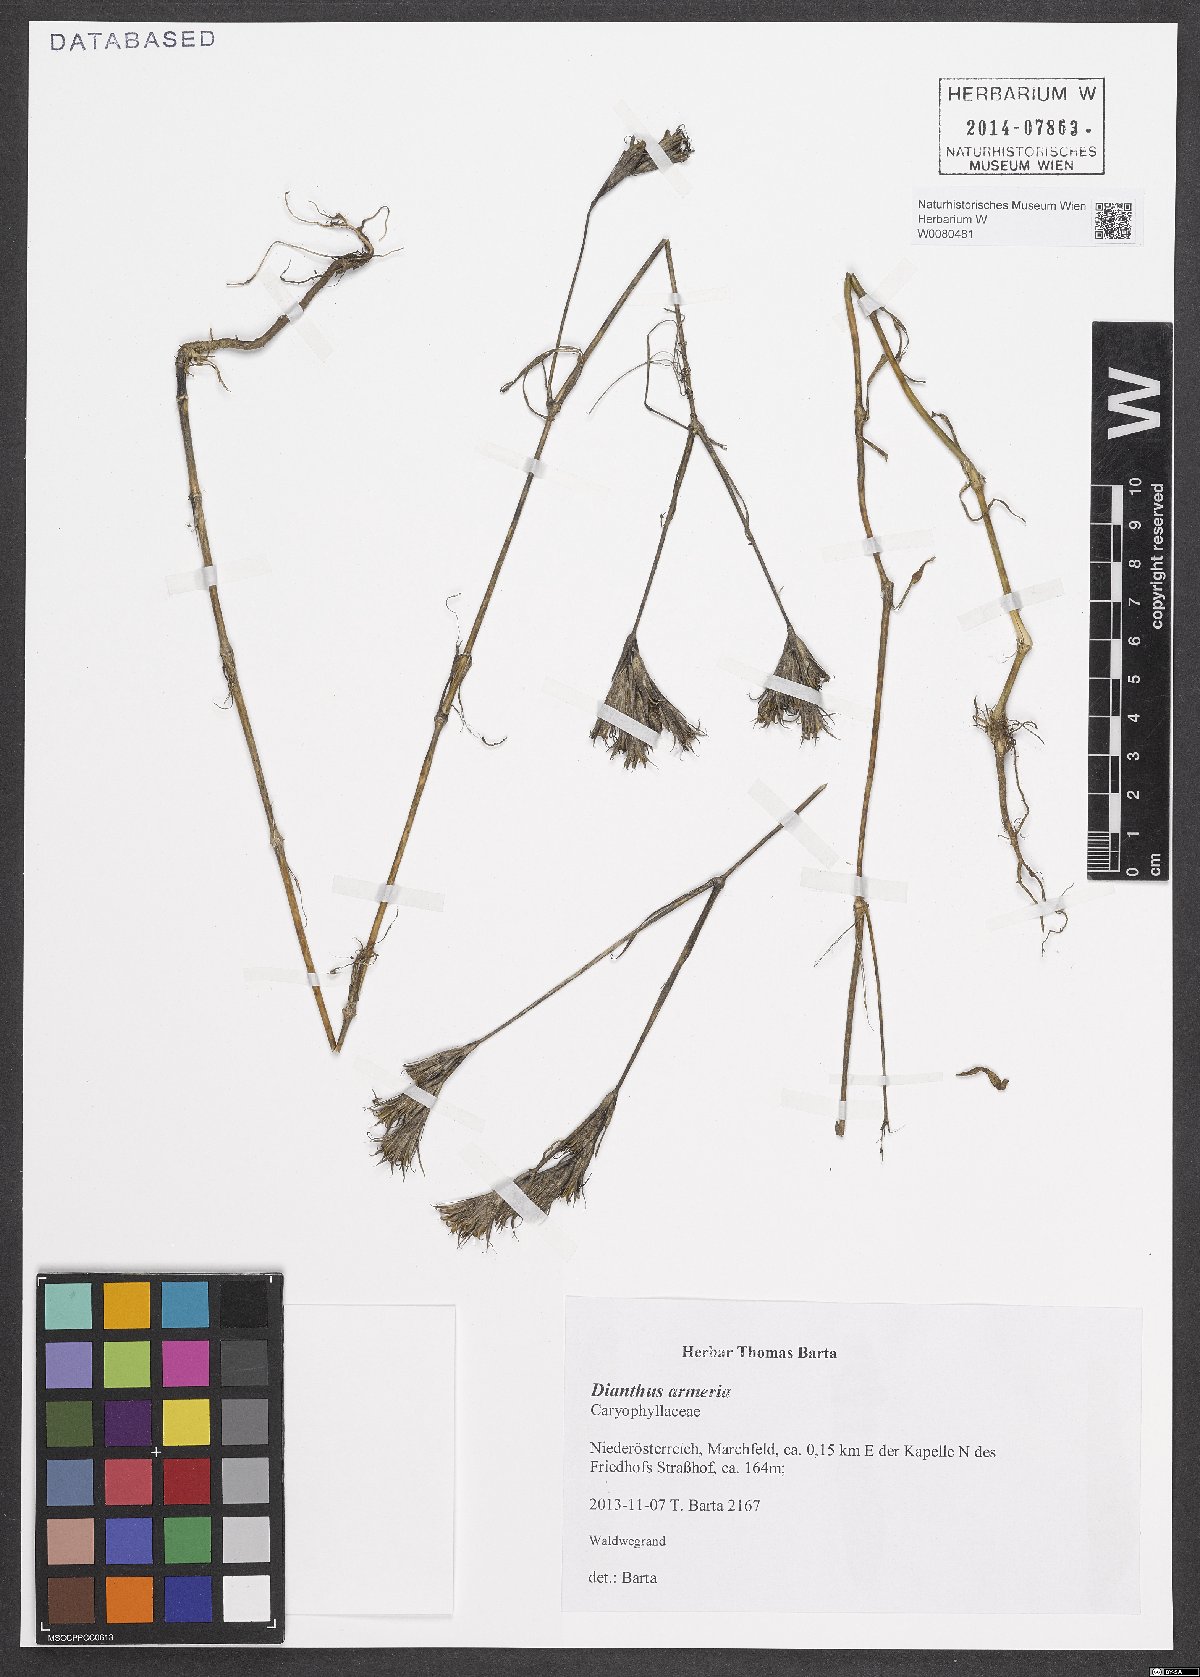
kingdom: Plantae
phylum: Tracheophyta
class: Magnoliopsida
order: Caryophyllales
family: Caryophyllaceae
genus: Dianthus
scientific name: Dianthus armeria
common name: Deptford pink
